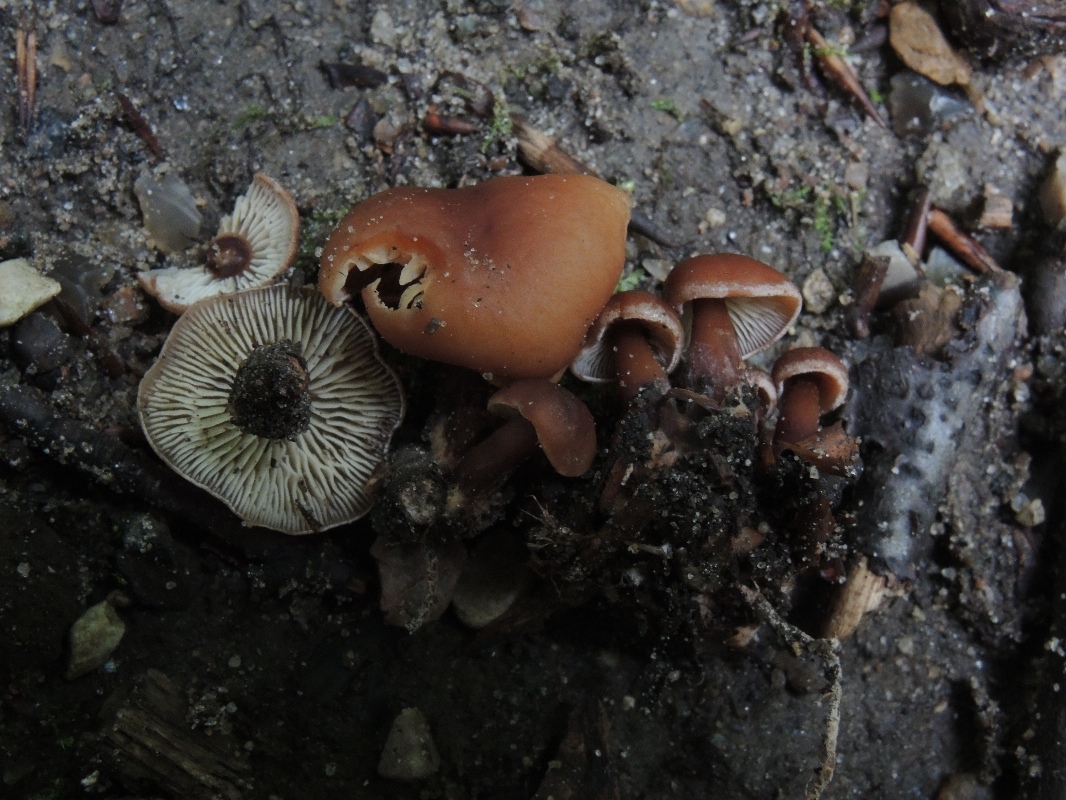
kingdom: Fungi
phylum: Basidiomycota
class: Agaricomycetes
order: Agaricales
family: Omphalotaceae
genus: Gymnopus
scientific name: Gymnopus erythropus
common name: rødstokket fladhat
